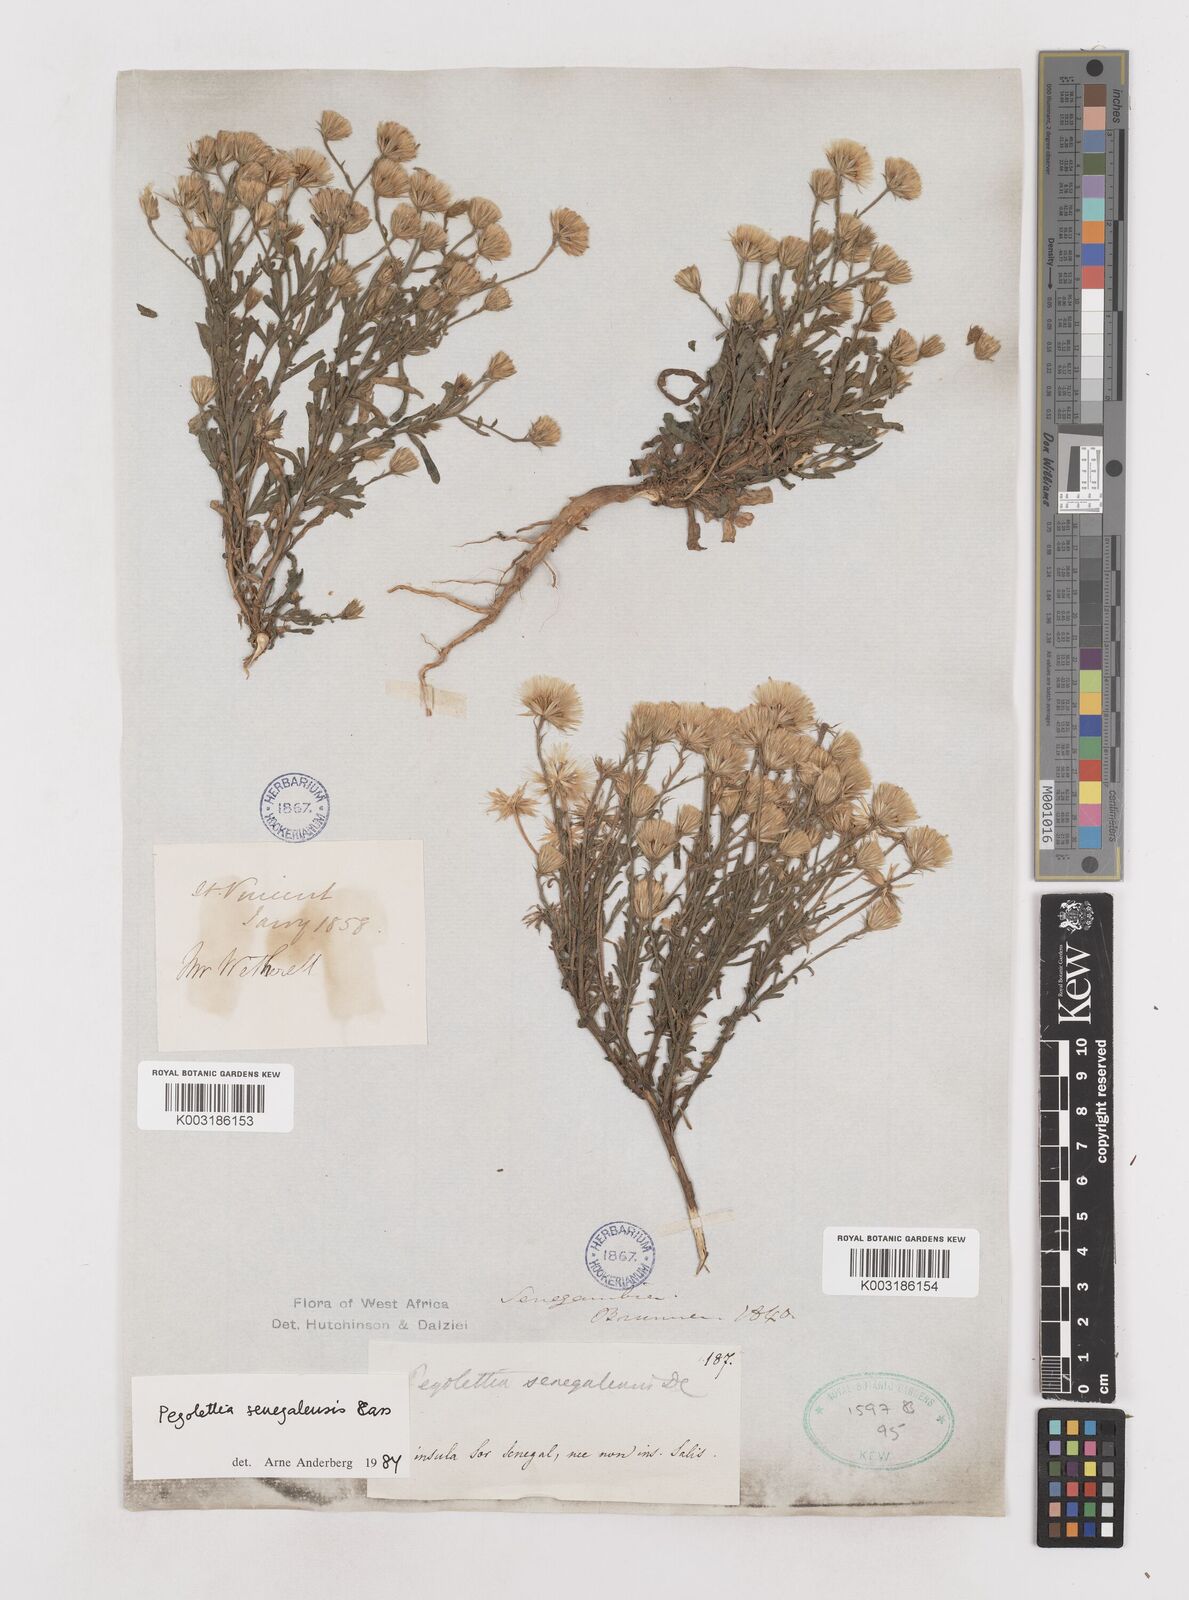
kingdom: Plantae
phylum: Tracheophyta
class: Magnoliopsida
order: Asterales
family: Asteraceae
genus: Pegolettia
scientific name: Pegolettia senegalensis
